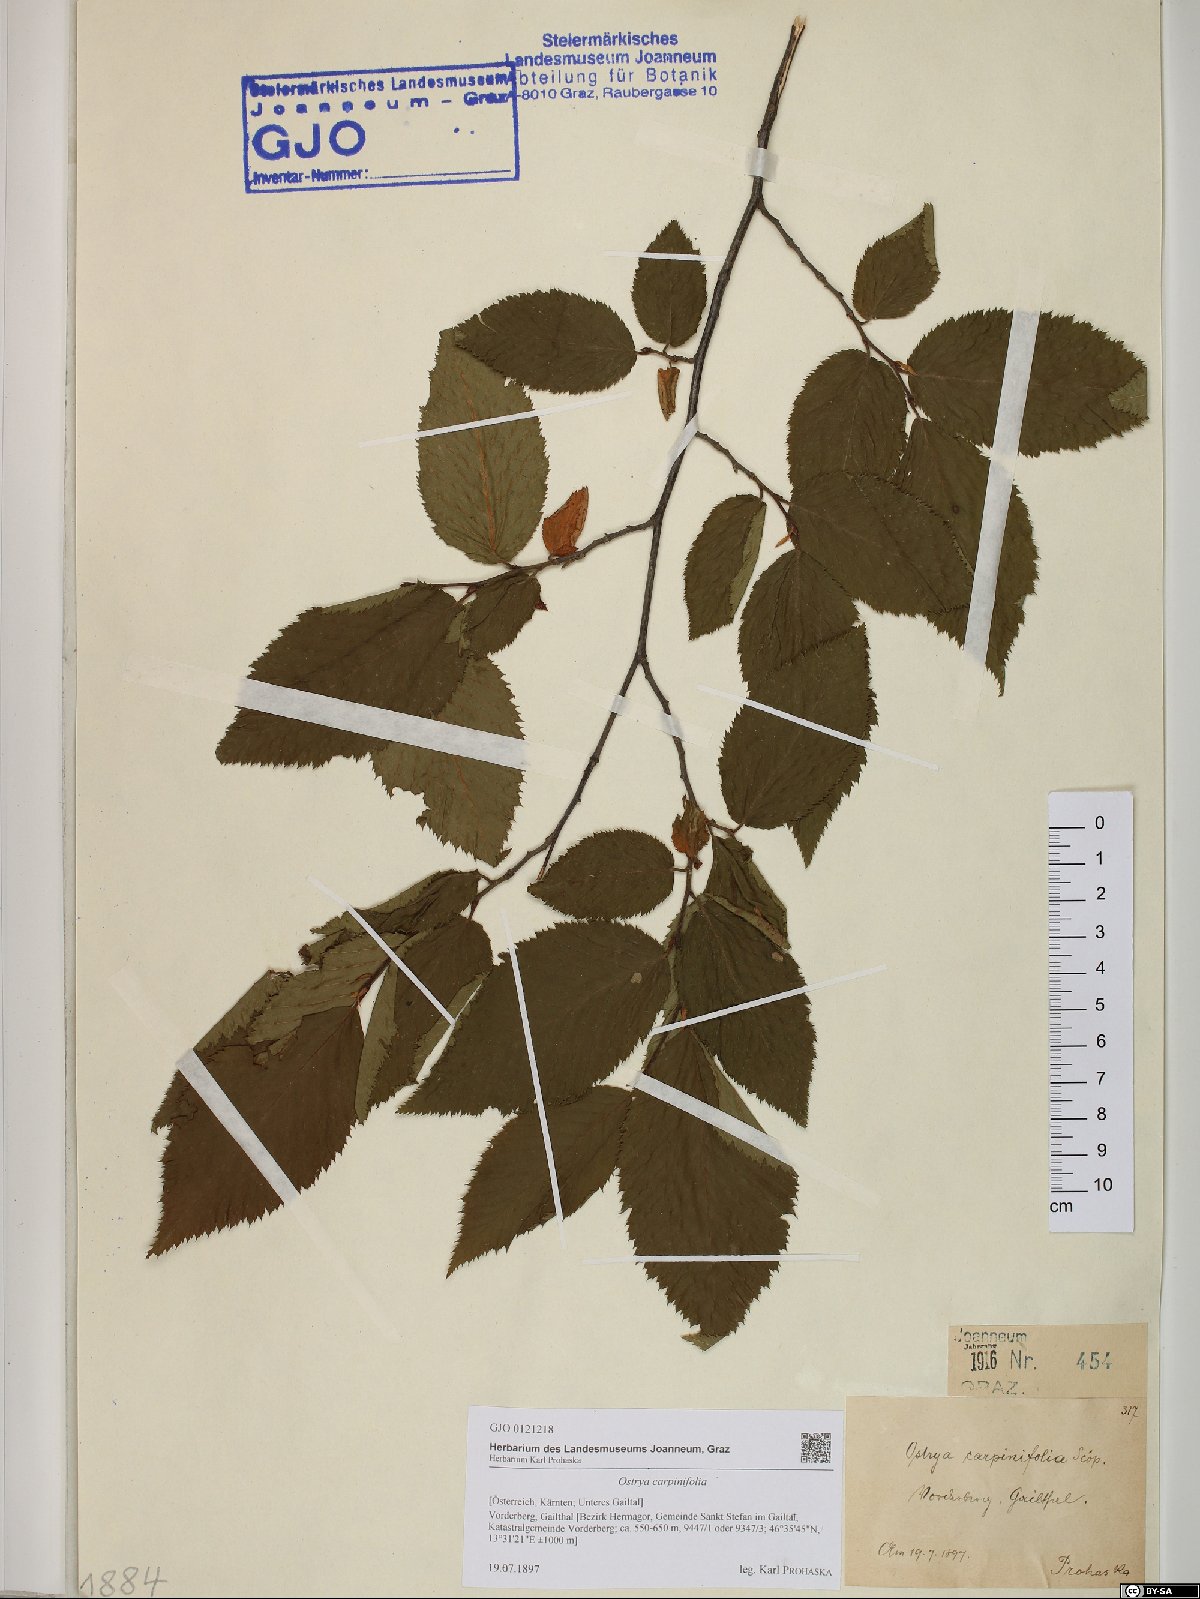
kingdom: Plantae
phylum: Tracheophyta
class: Magnoliopsida
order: Fagales
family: Betulaceae
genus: Ostrya
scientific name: Ostrya carpinifolia
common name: European hop-hornbeam
